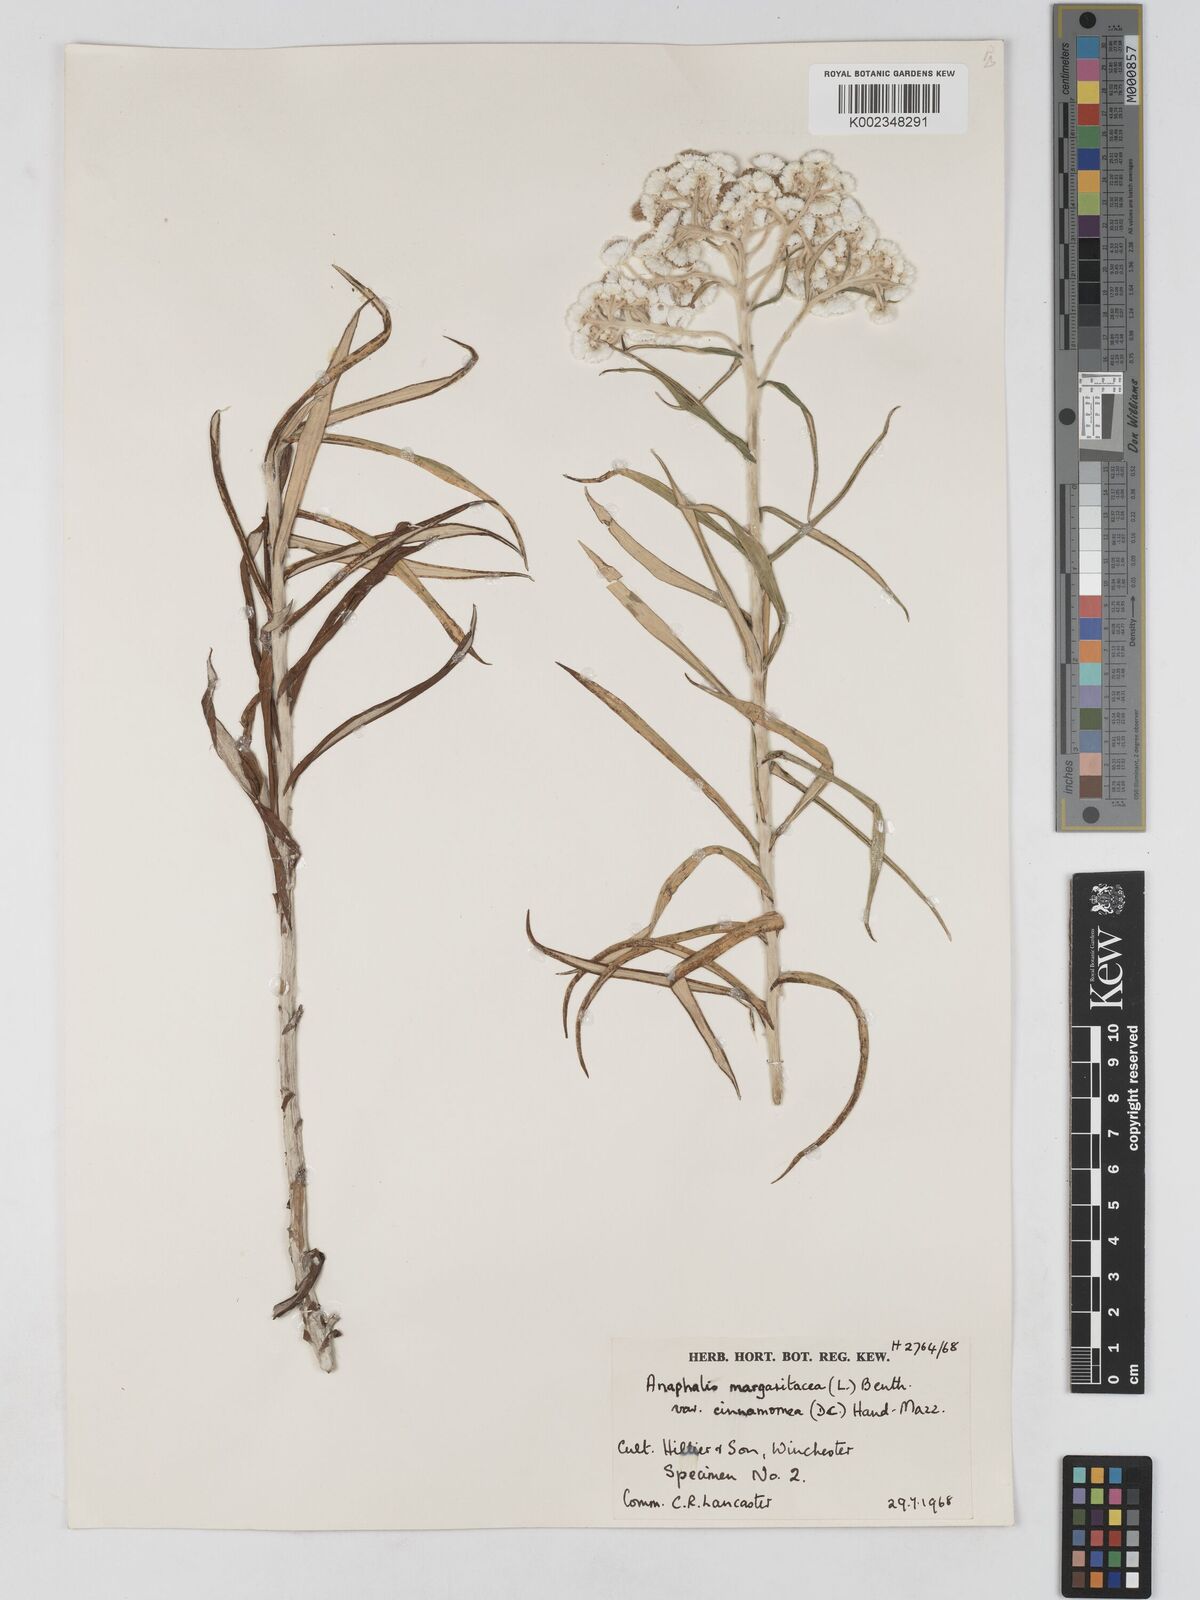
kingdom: Plantae
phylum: Tracheophyta
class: Magnoliopsida
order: Asterales
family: Asteraceae
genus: Anaphalis
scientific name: Anaphalis margaritacea
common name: Pearly everlasting
